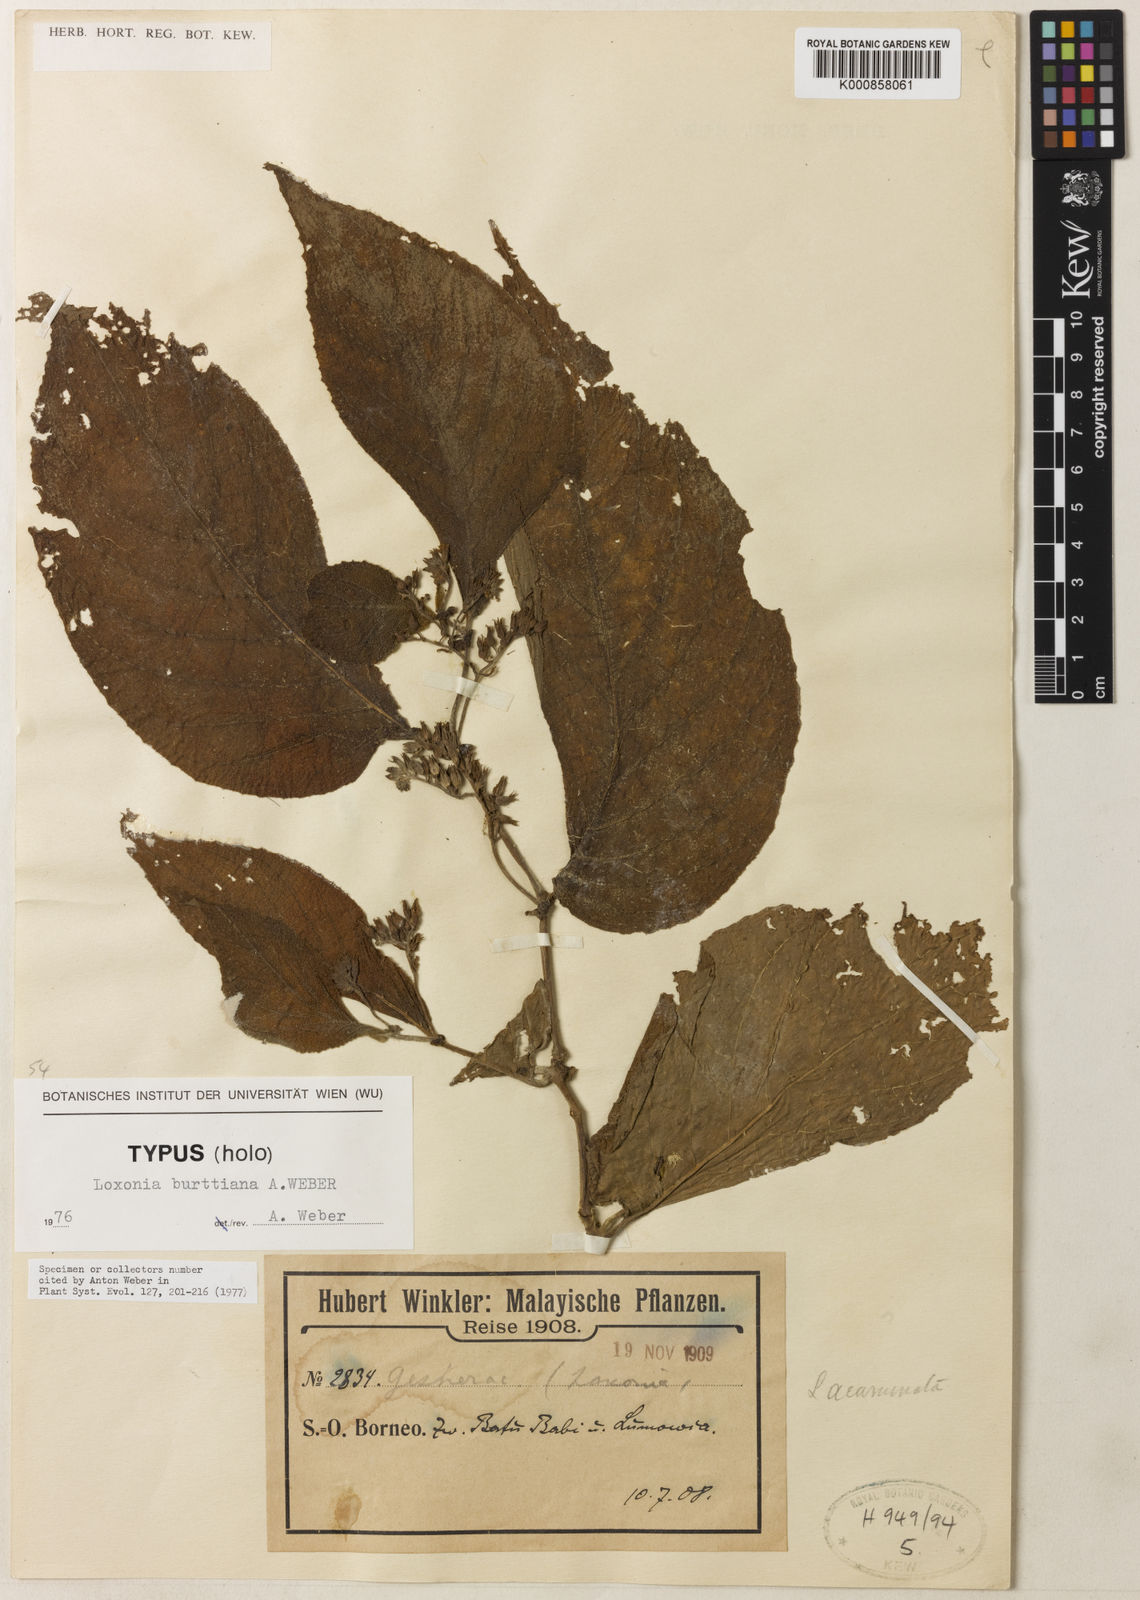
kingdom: Plantae
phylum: Tracheophyta
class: Magnoliopsida
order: Lamiales
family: Gesneriaceae
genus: Loxonia
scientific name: Loxonia burttiana
